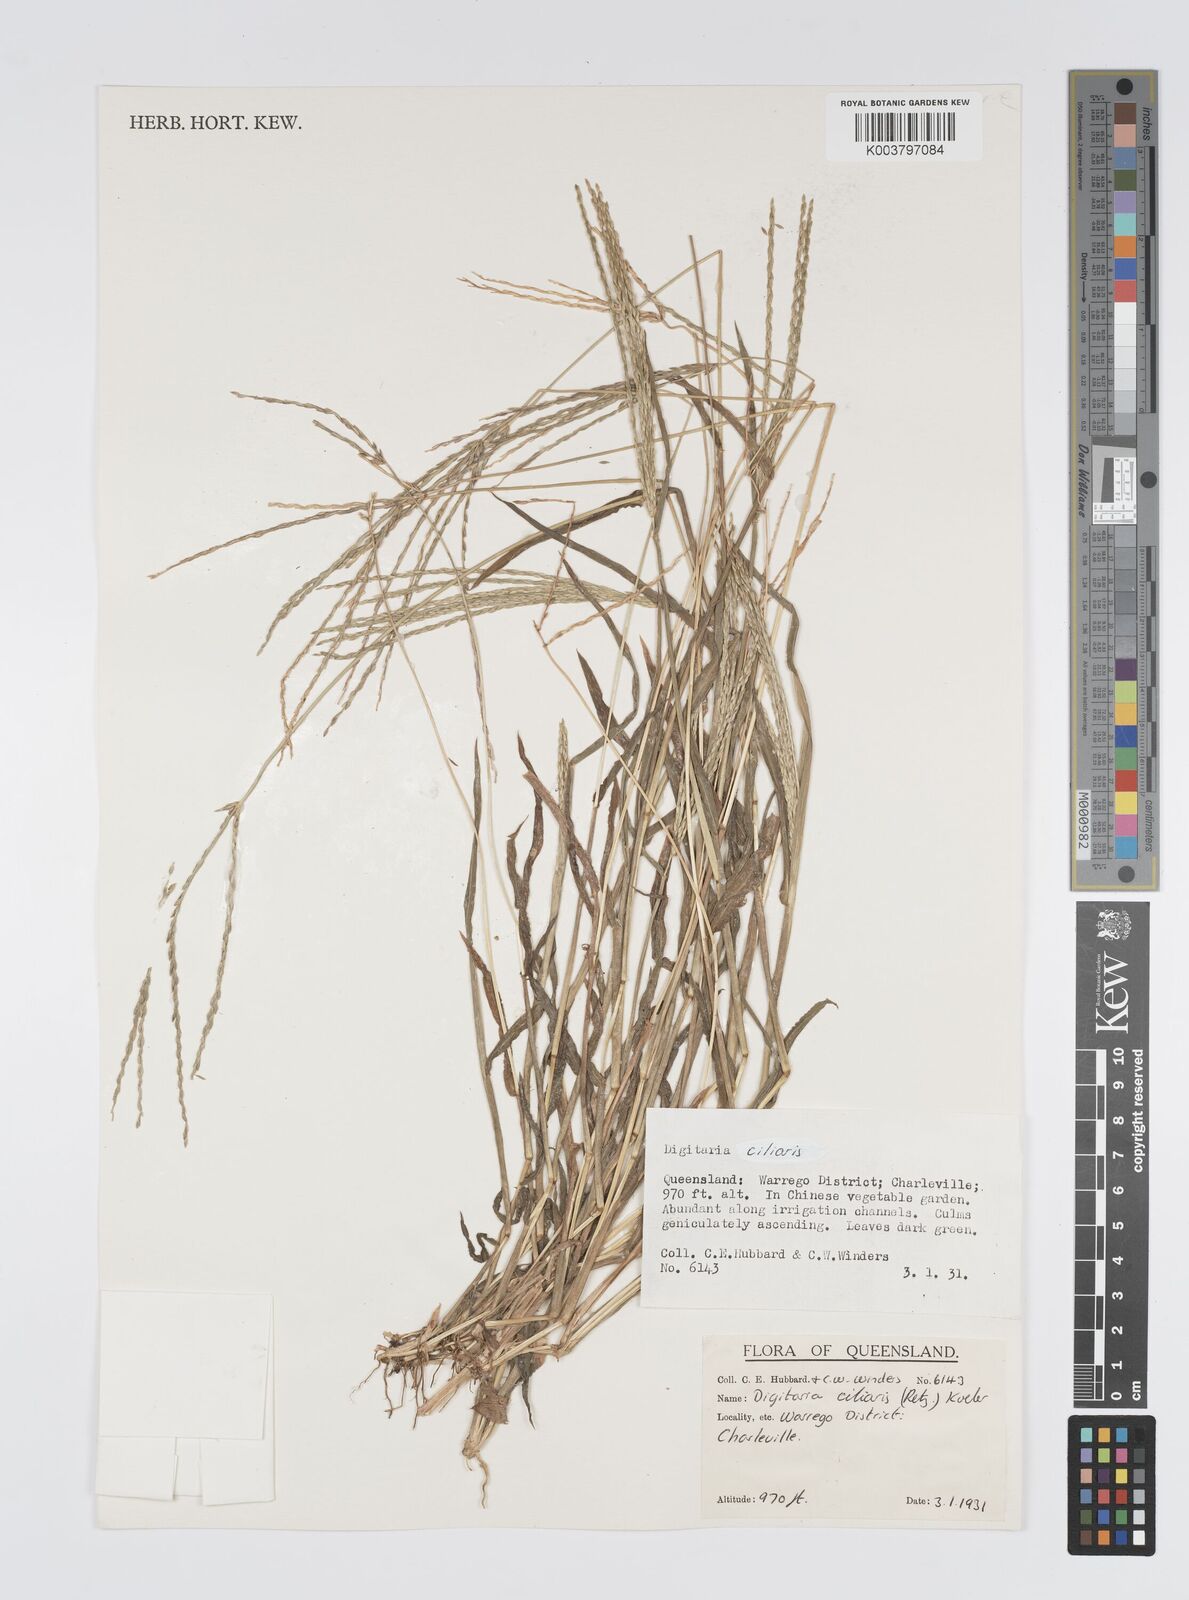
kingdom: Plantae
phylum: Tracheophyta
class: Liliopsida
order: Poales
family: Poaceae
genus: Digitaria
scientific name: Digitaria ciliaris
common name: Tropical finger-grass
